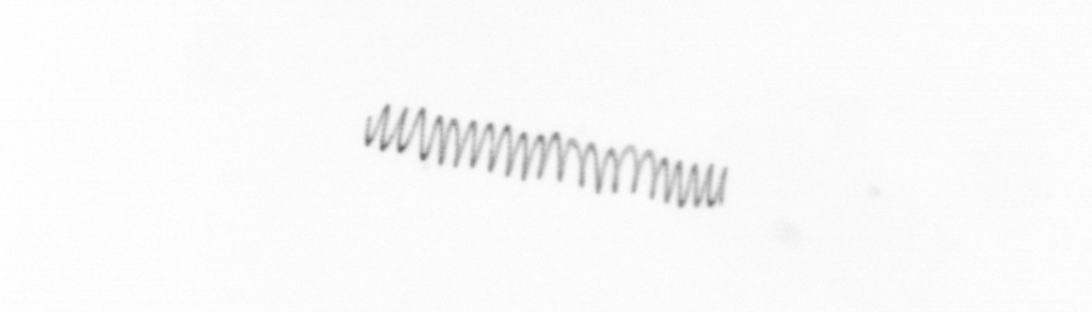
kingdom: Chromista
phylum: Ochrophyta
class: Bacillariophyceae
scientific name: Bacillariophyceae
